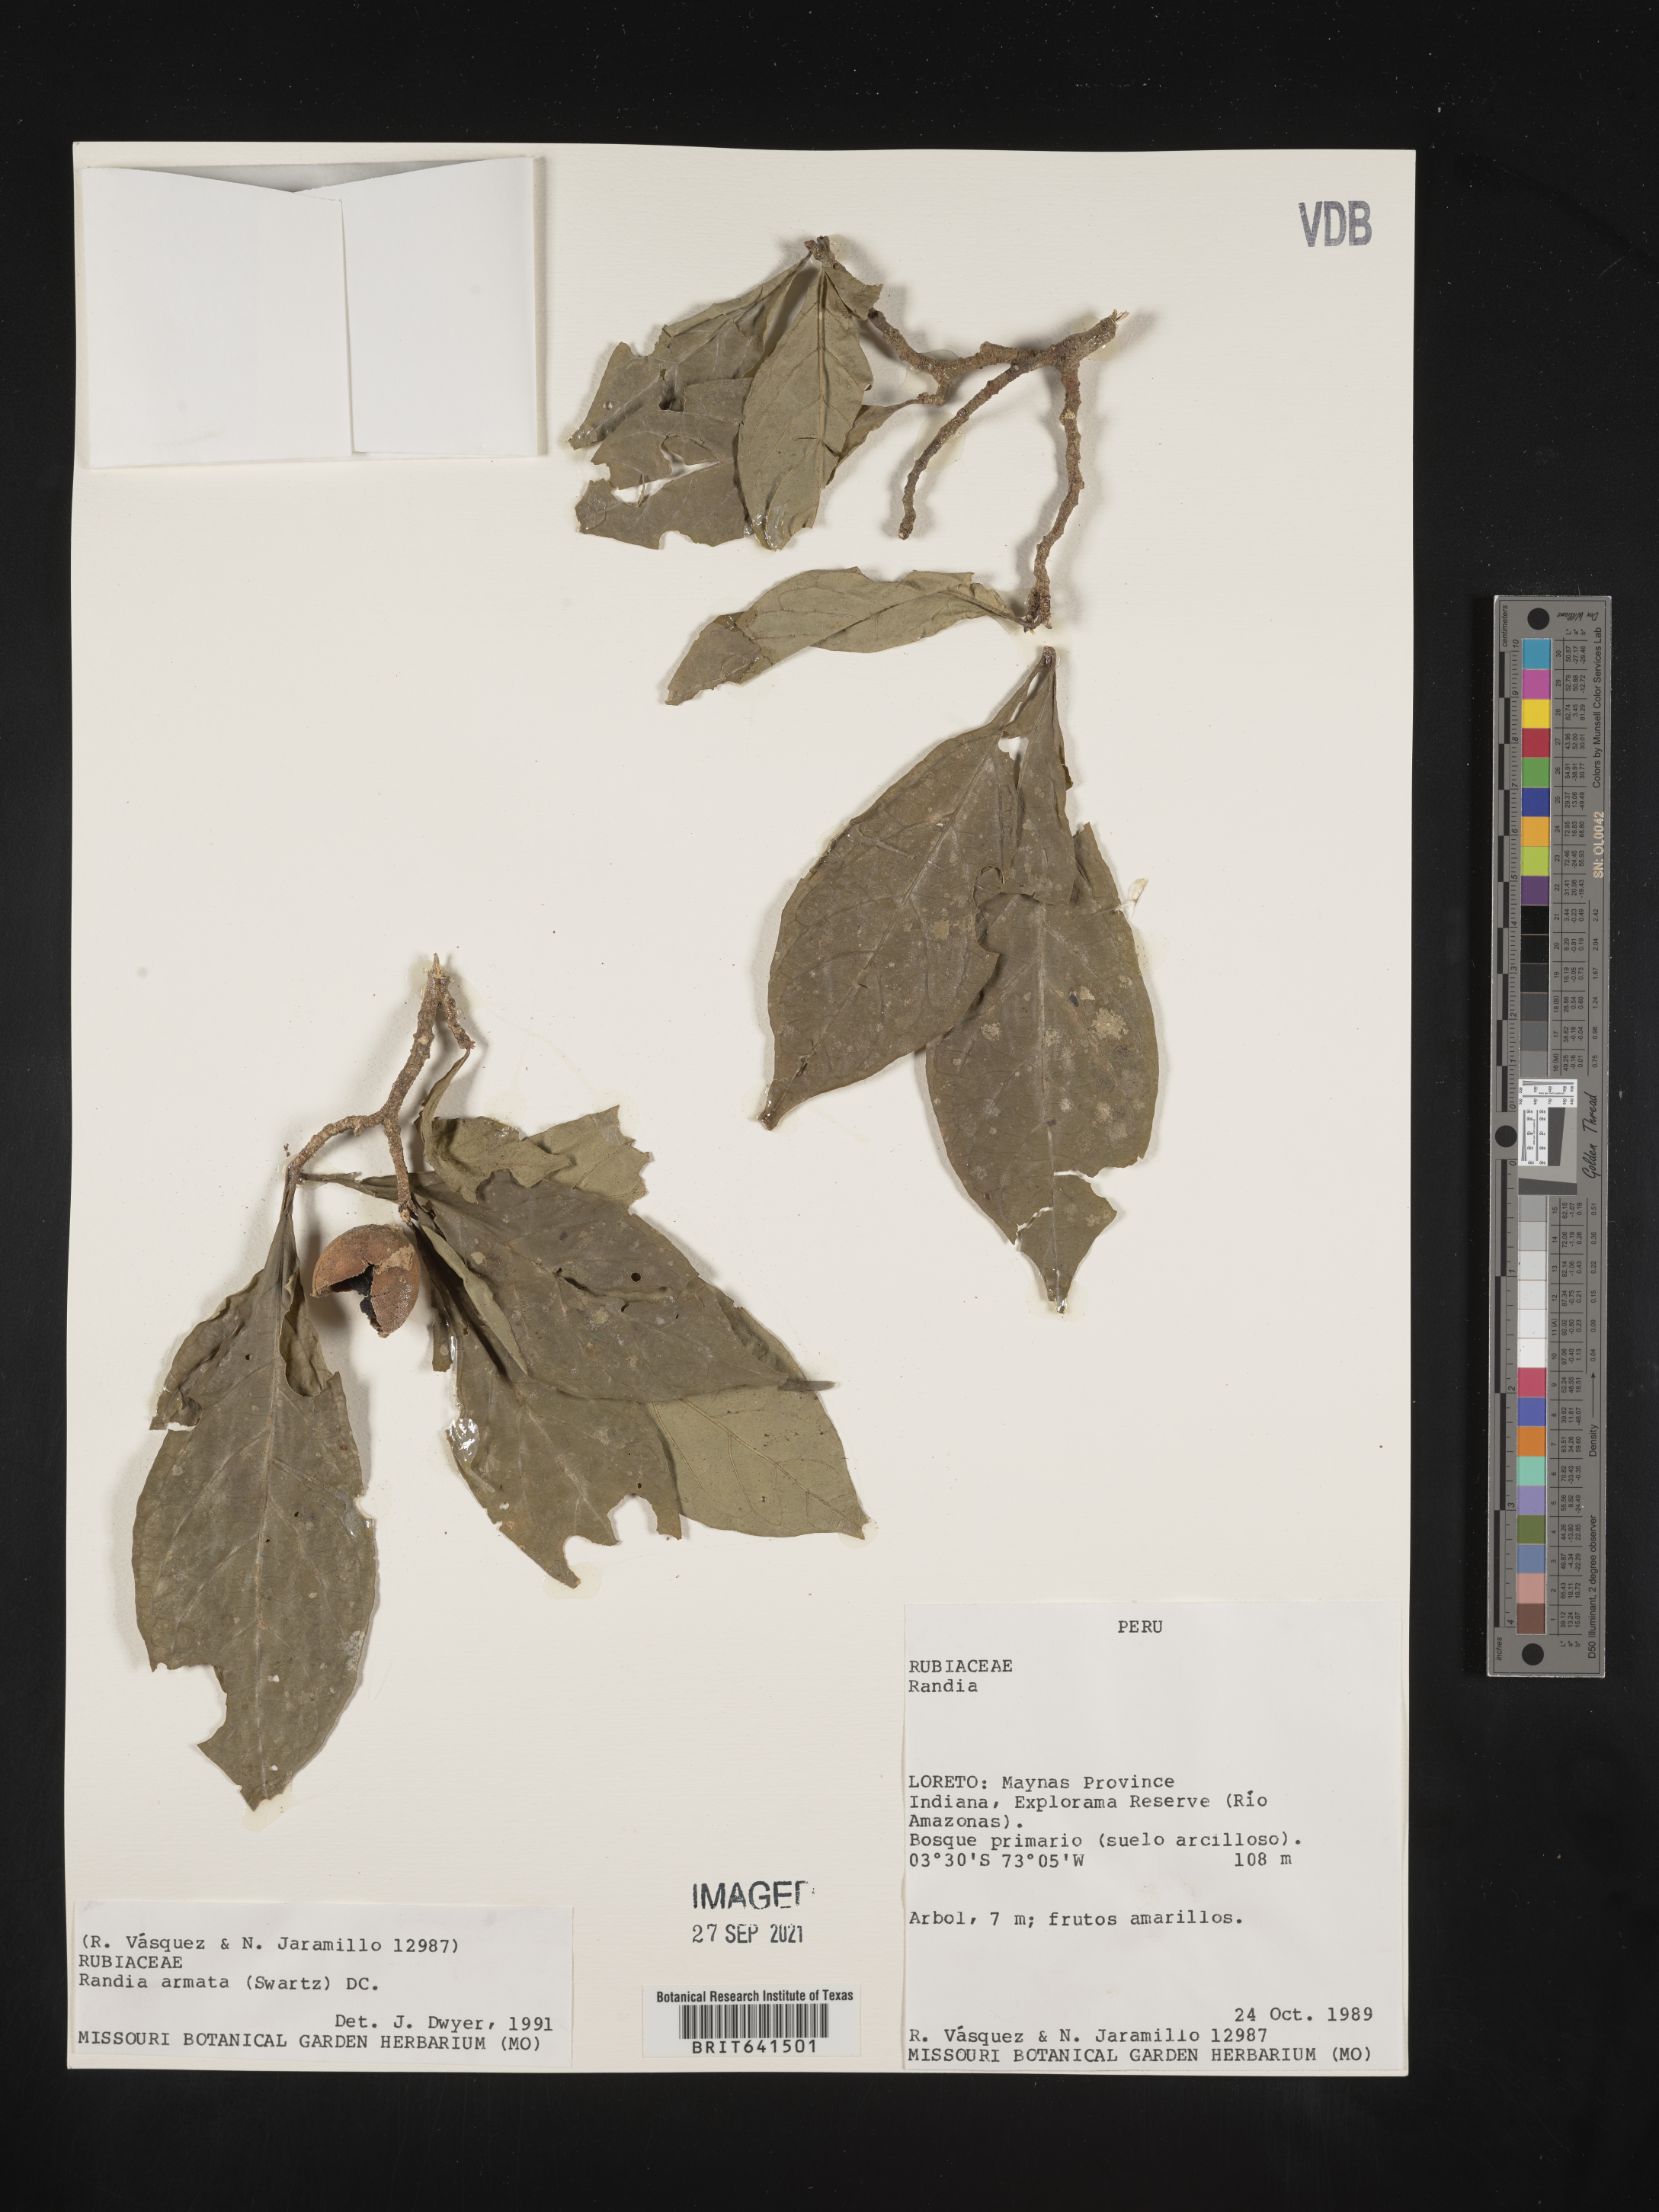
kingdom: Plantae
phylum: Tracheophyta
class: Magnoliopsida
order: Gentianales
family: Rubiaceae
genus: Randia
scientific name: Randia
